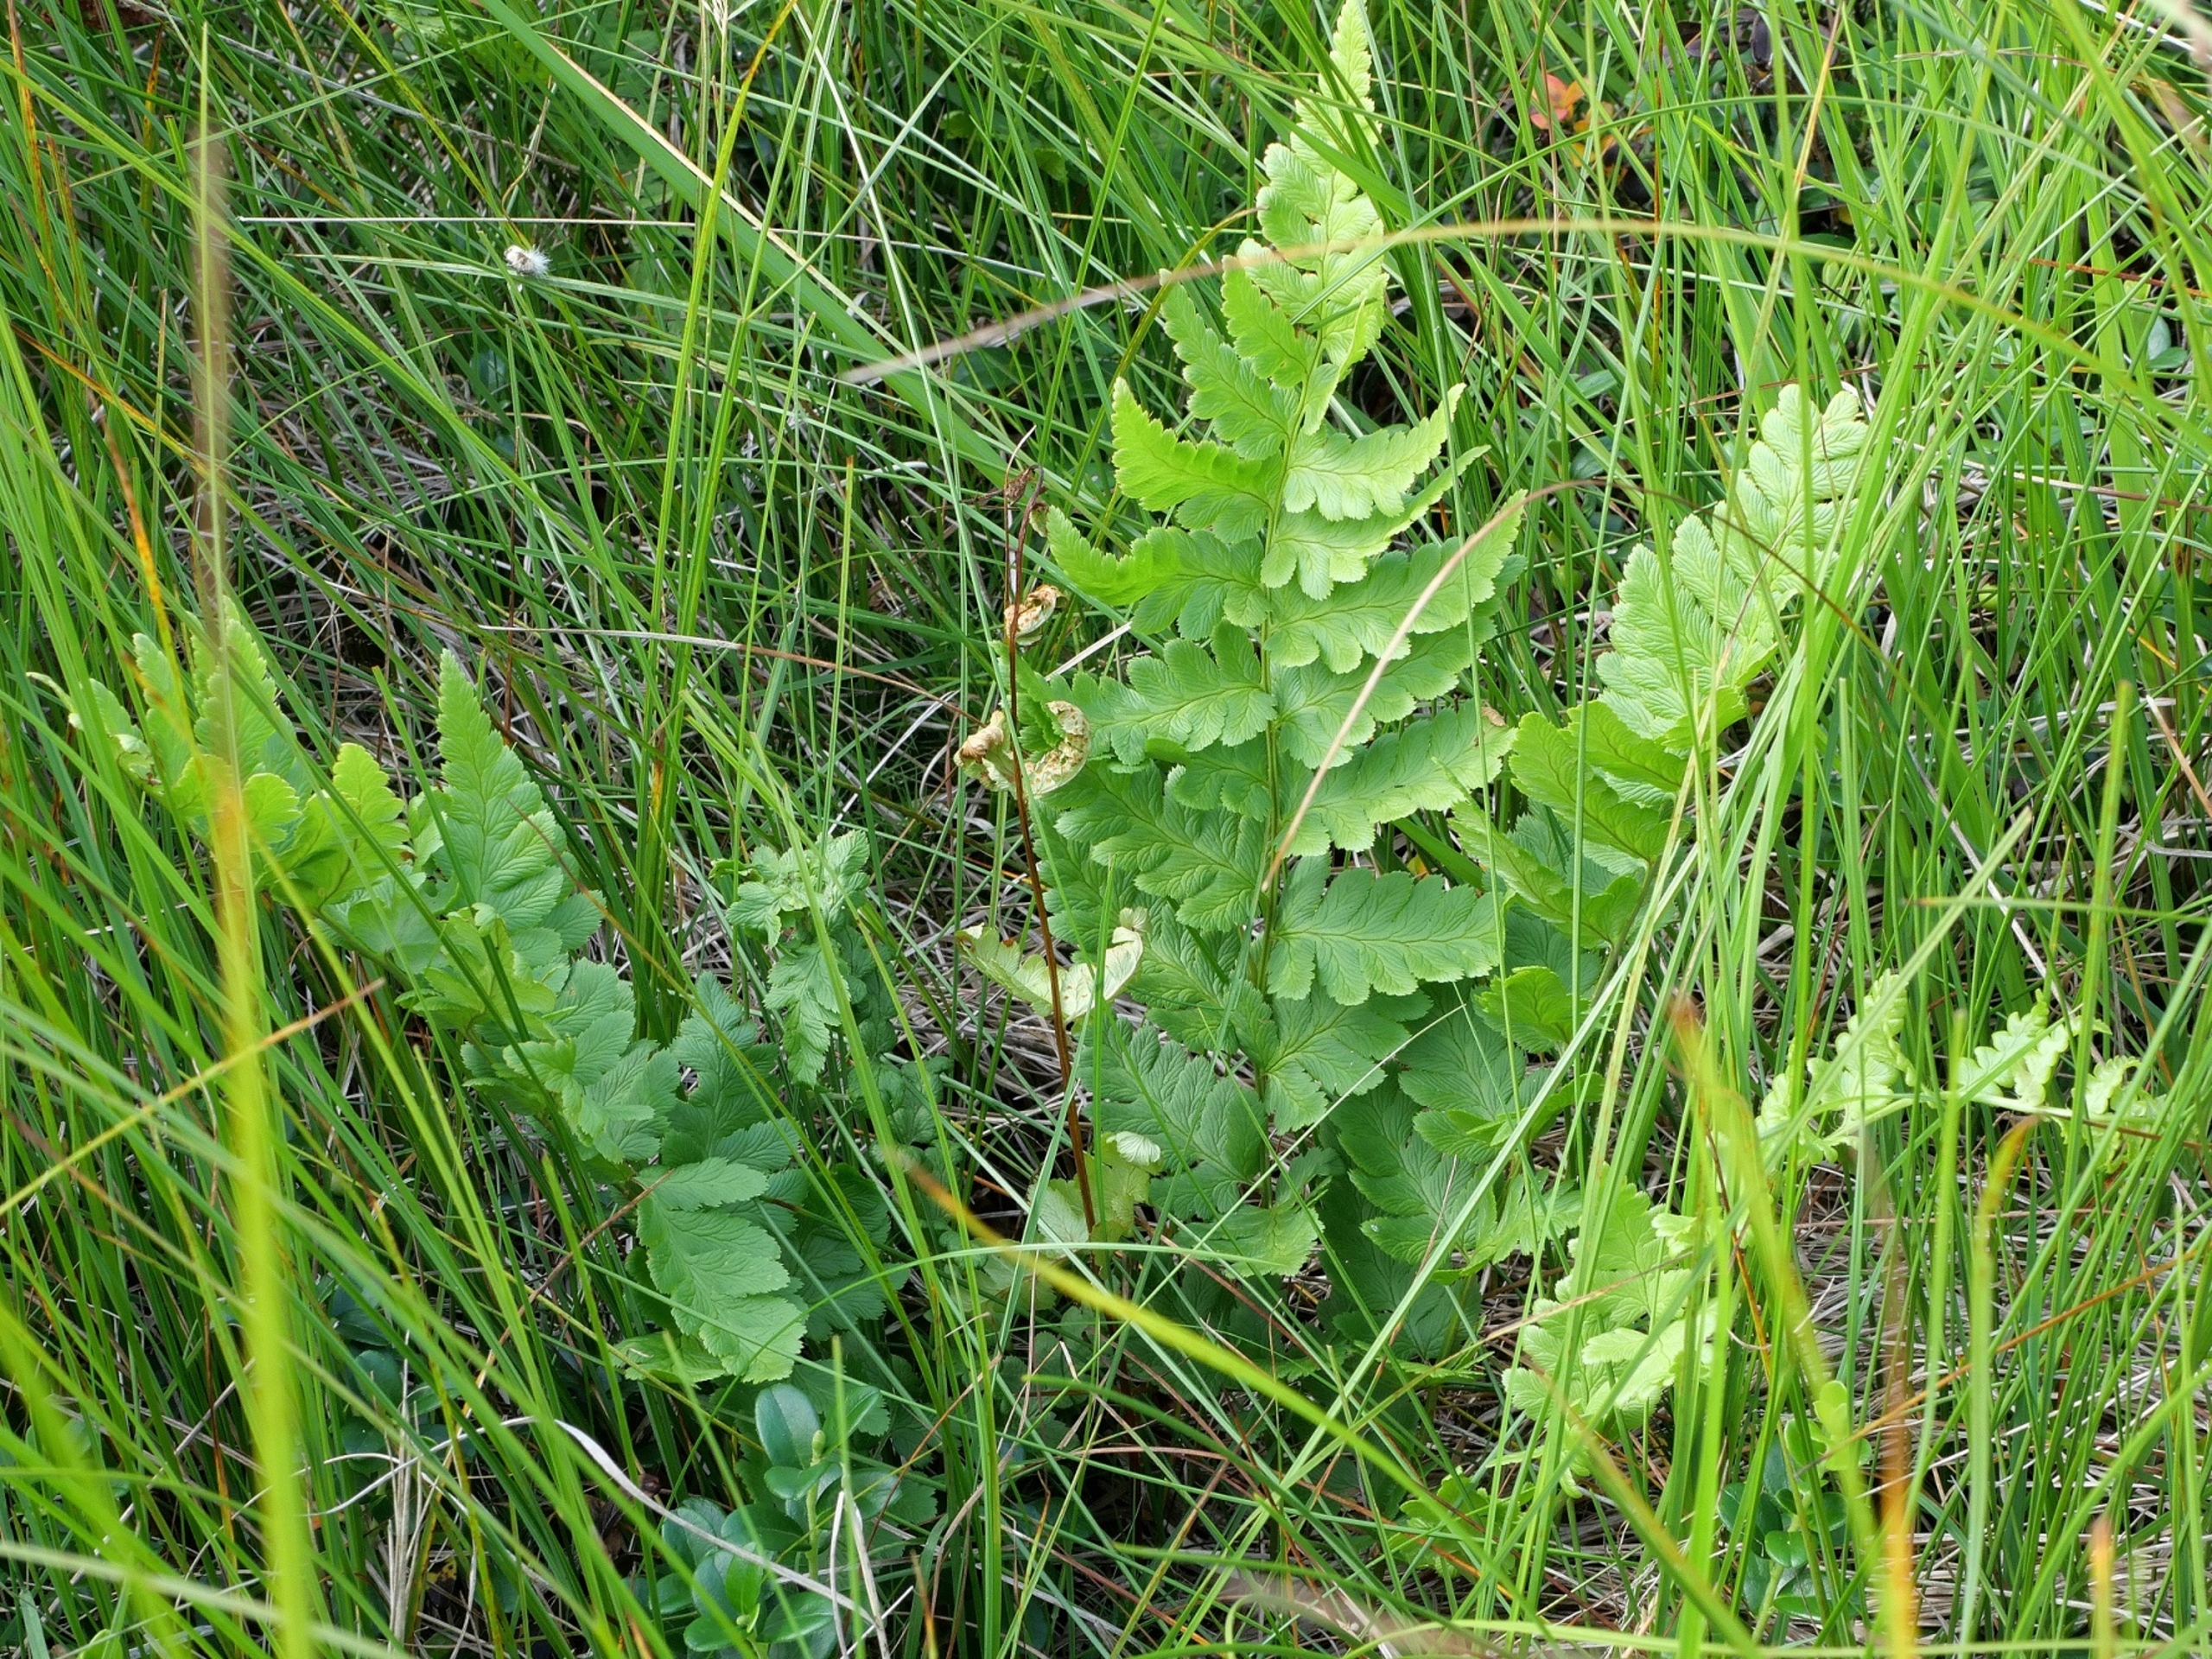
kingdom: Plantae
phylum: Tracheophyta
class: Polypodiopsida
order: Polypodiales
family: Dryopteridaceae
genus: Dryopteris
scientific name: Dryopteris cristata
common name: Butfinnet mangeløv
